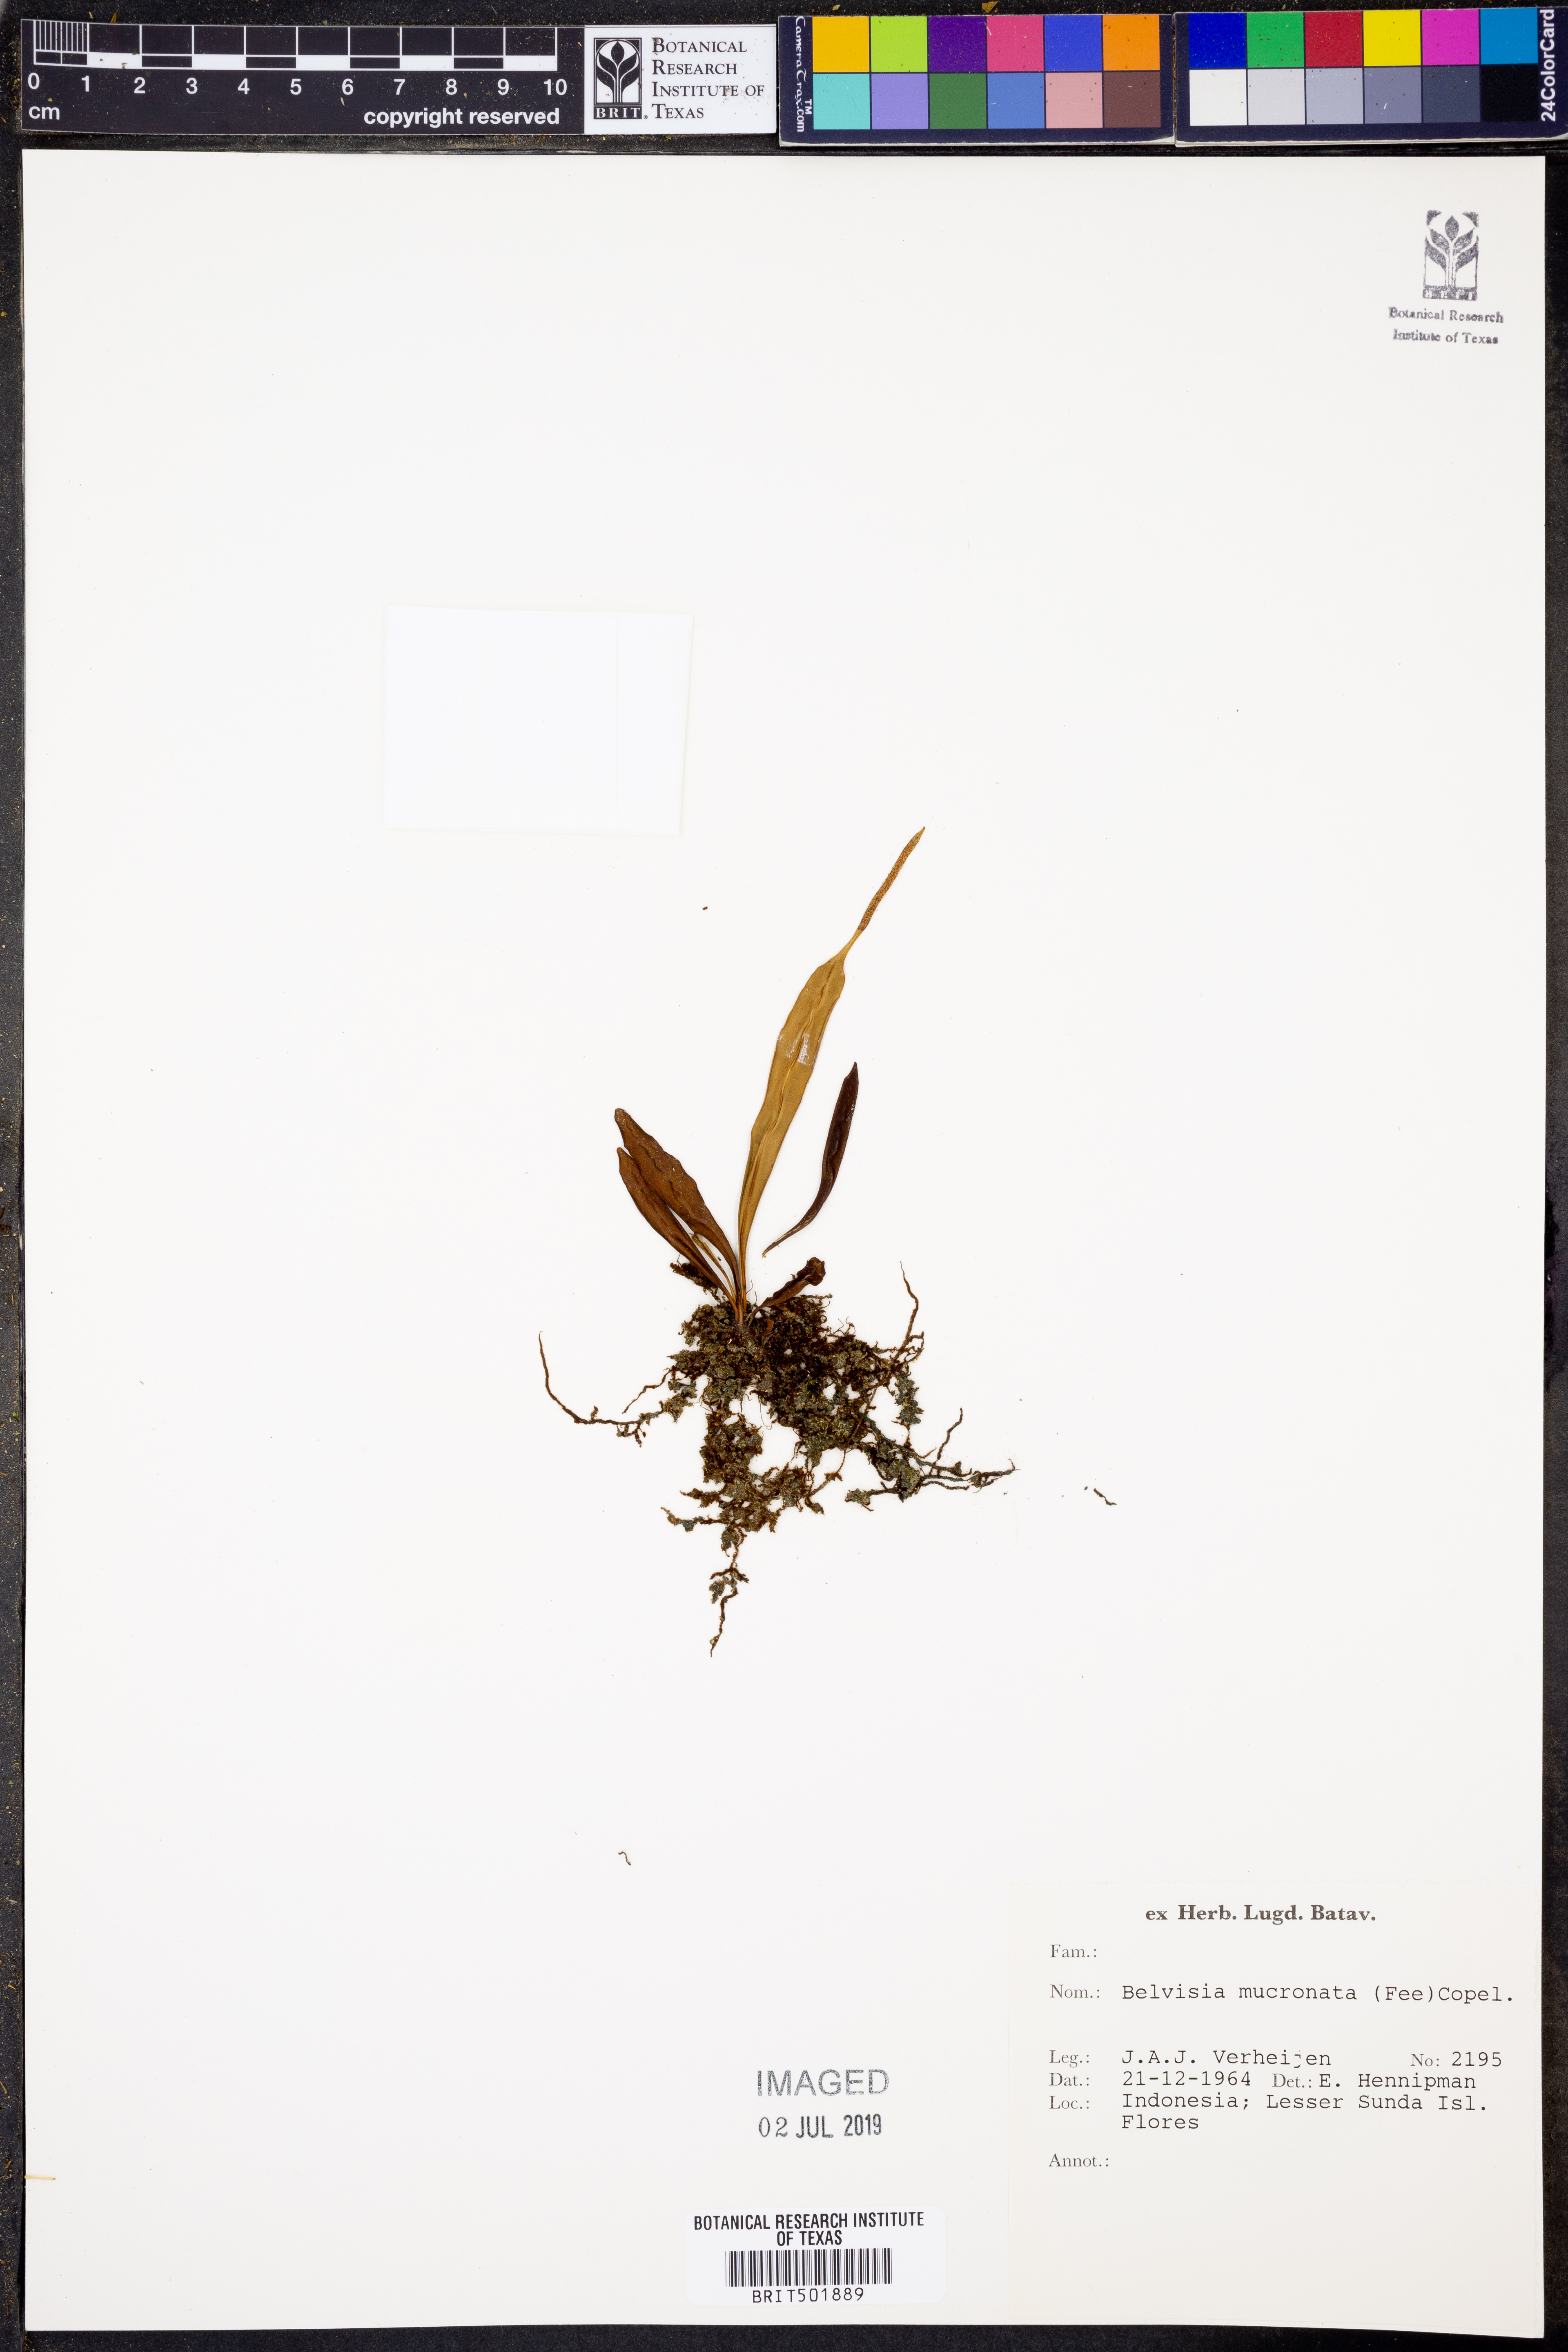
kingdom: Plantae
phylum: Tracheophyta
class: Polypodiopsida
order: Polypodiales
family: Polypodiaceae
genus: Lepisorus
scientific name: Lepisorus mucronatus
